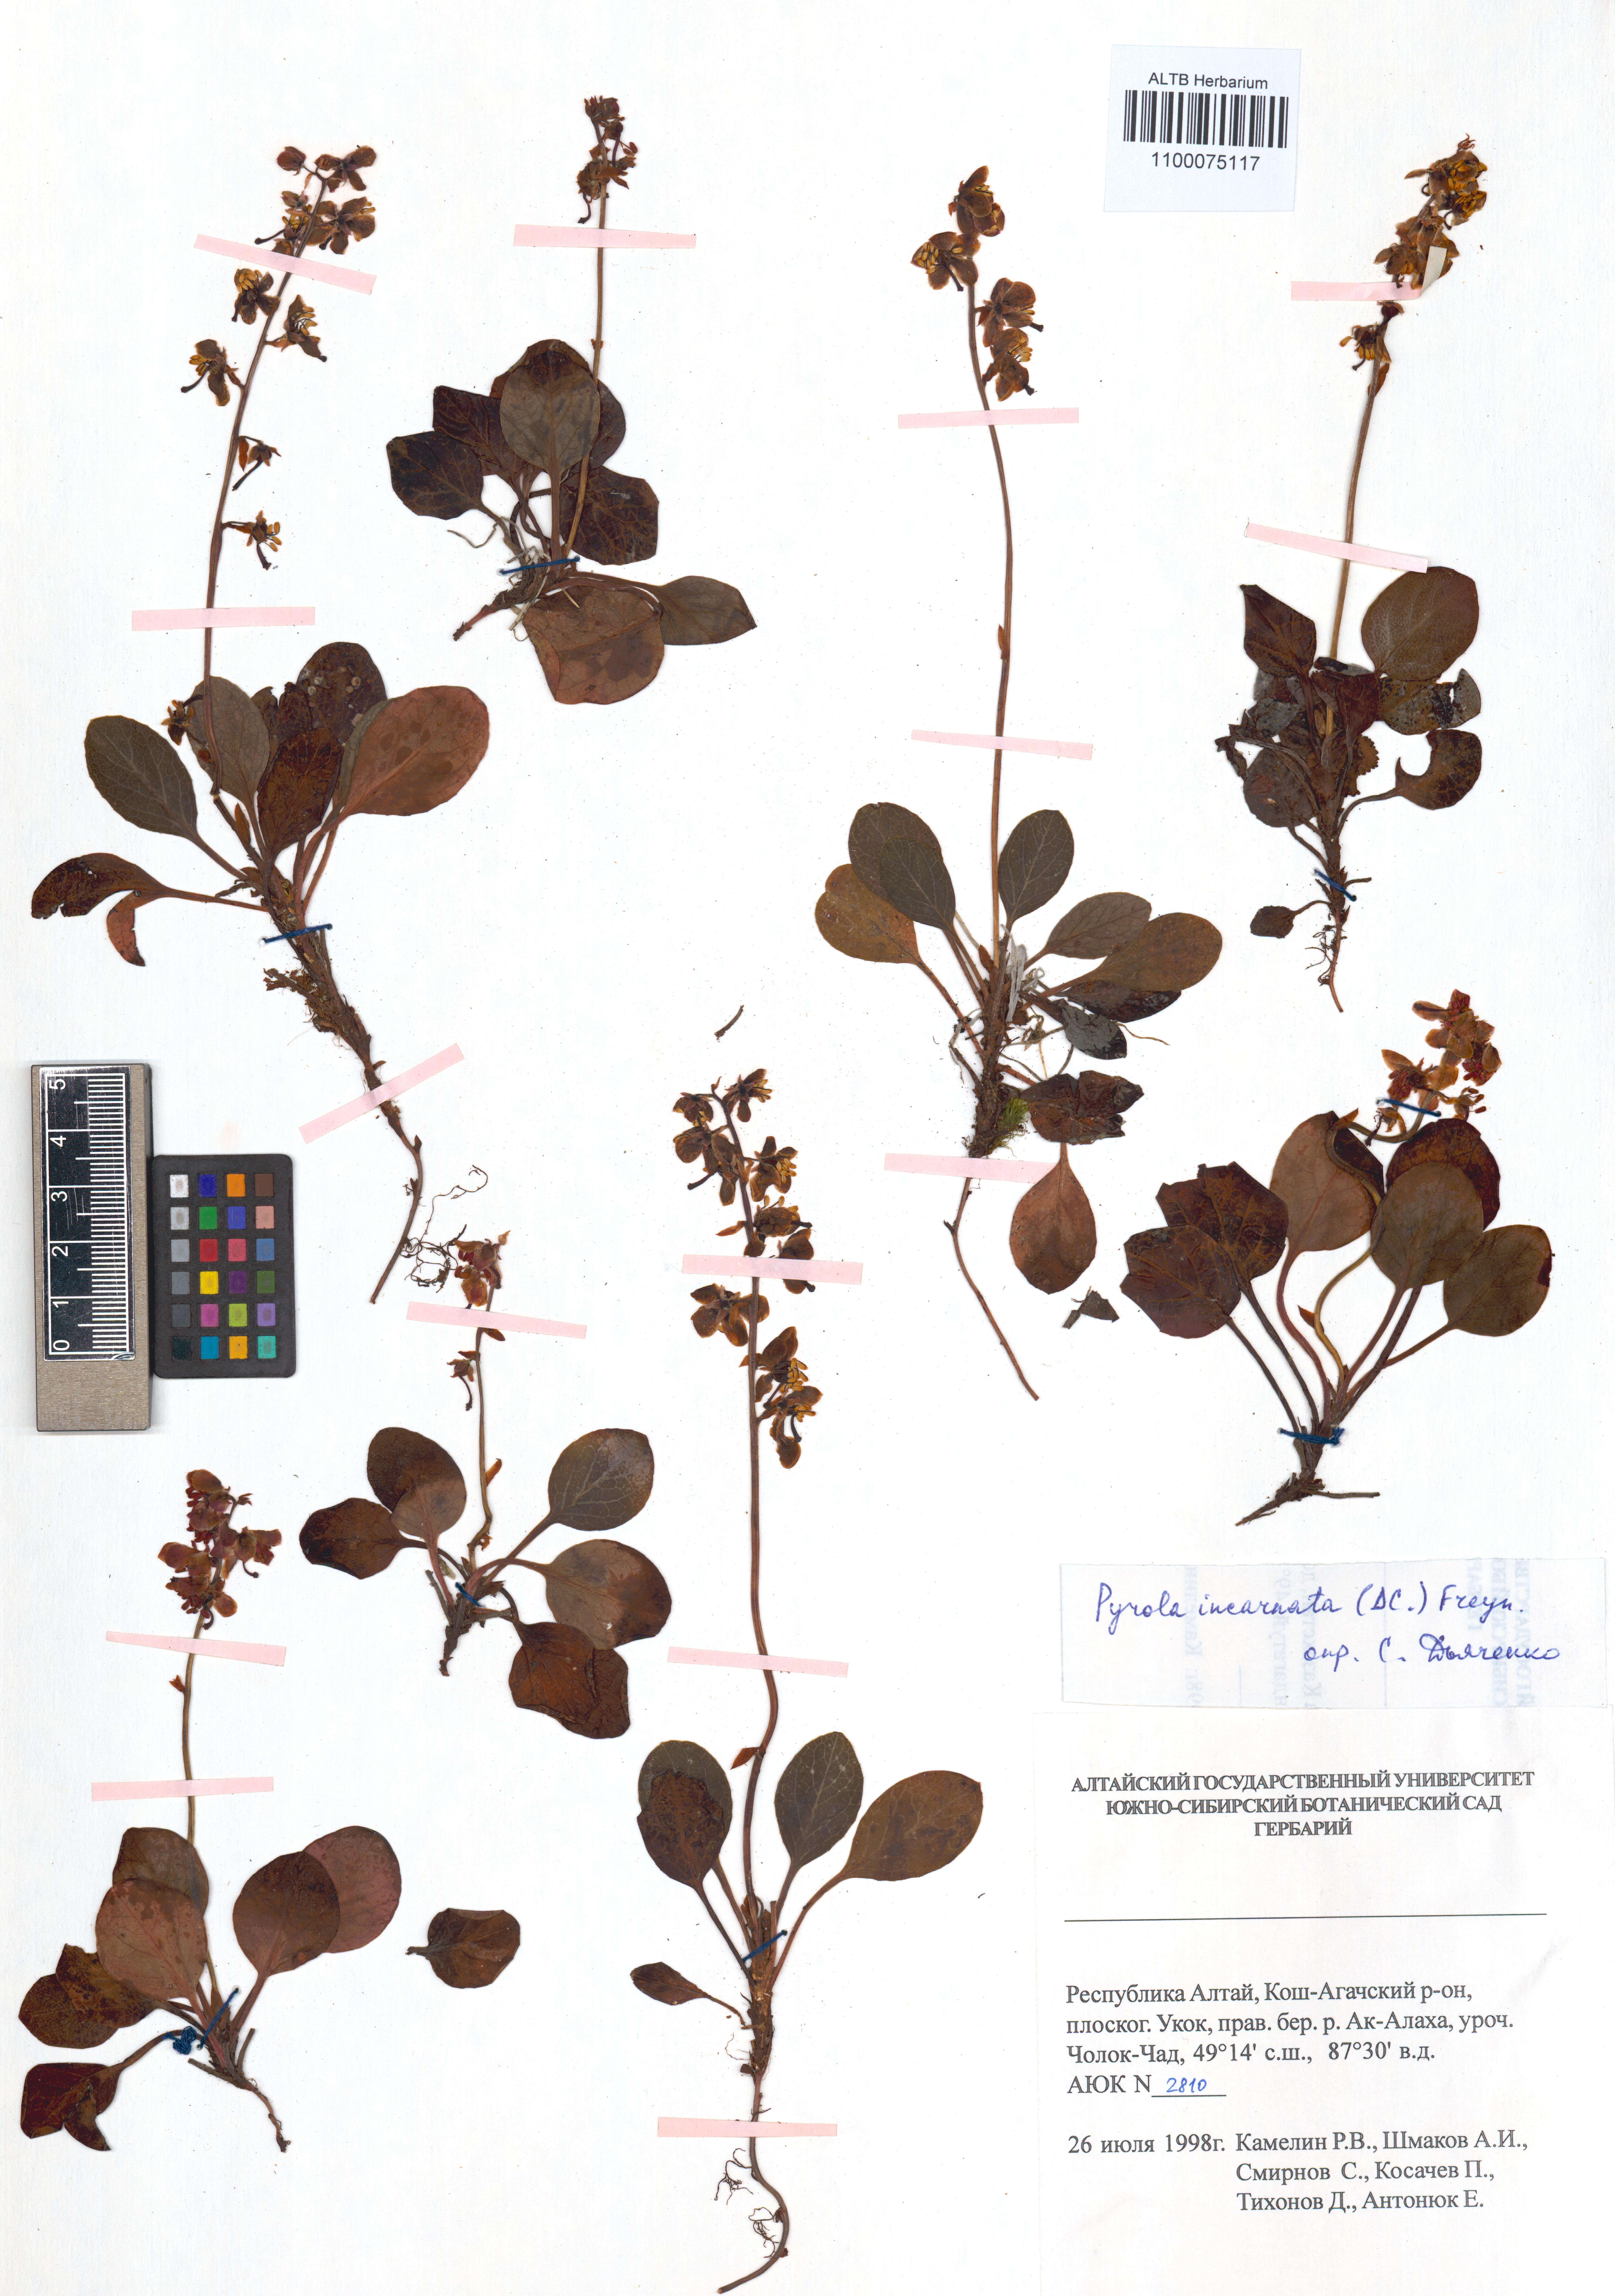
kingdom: Plantae
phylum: Tracheophyta
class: Magnoliopsida
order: Ericales
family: Ericaceae
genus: Pyrola
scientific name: Pyrola asarifolia
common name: Bog wintergreen
